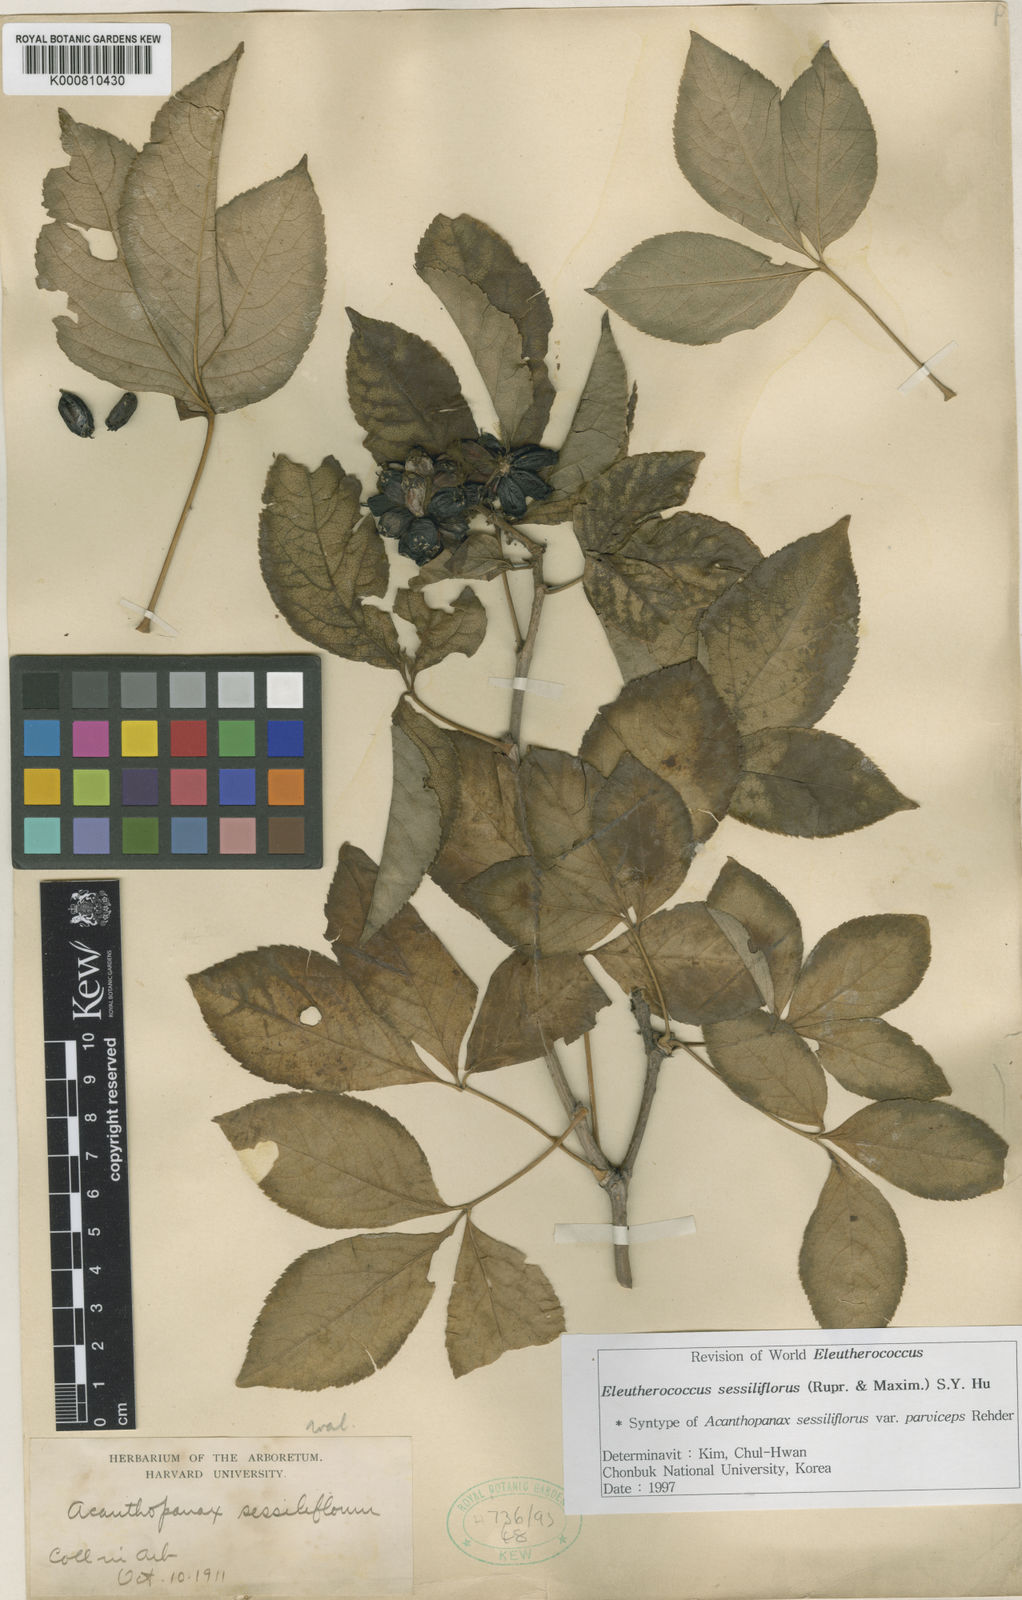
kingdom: Plantae
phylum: Tracheophyta
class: Magnoliopsida
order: Apiales
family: Araliaceae
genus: Eleutherococcus
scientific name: Eleutherococcus sessiliflorus
